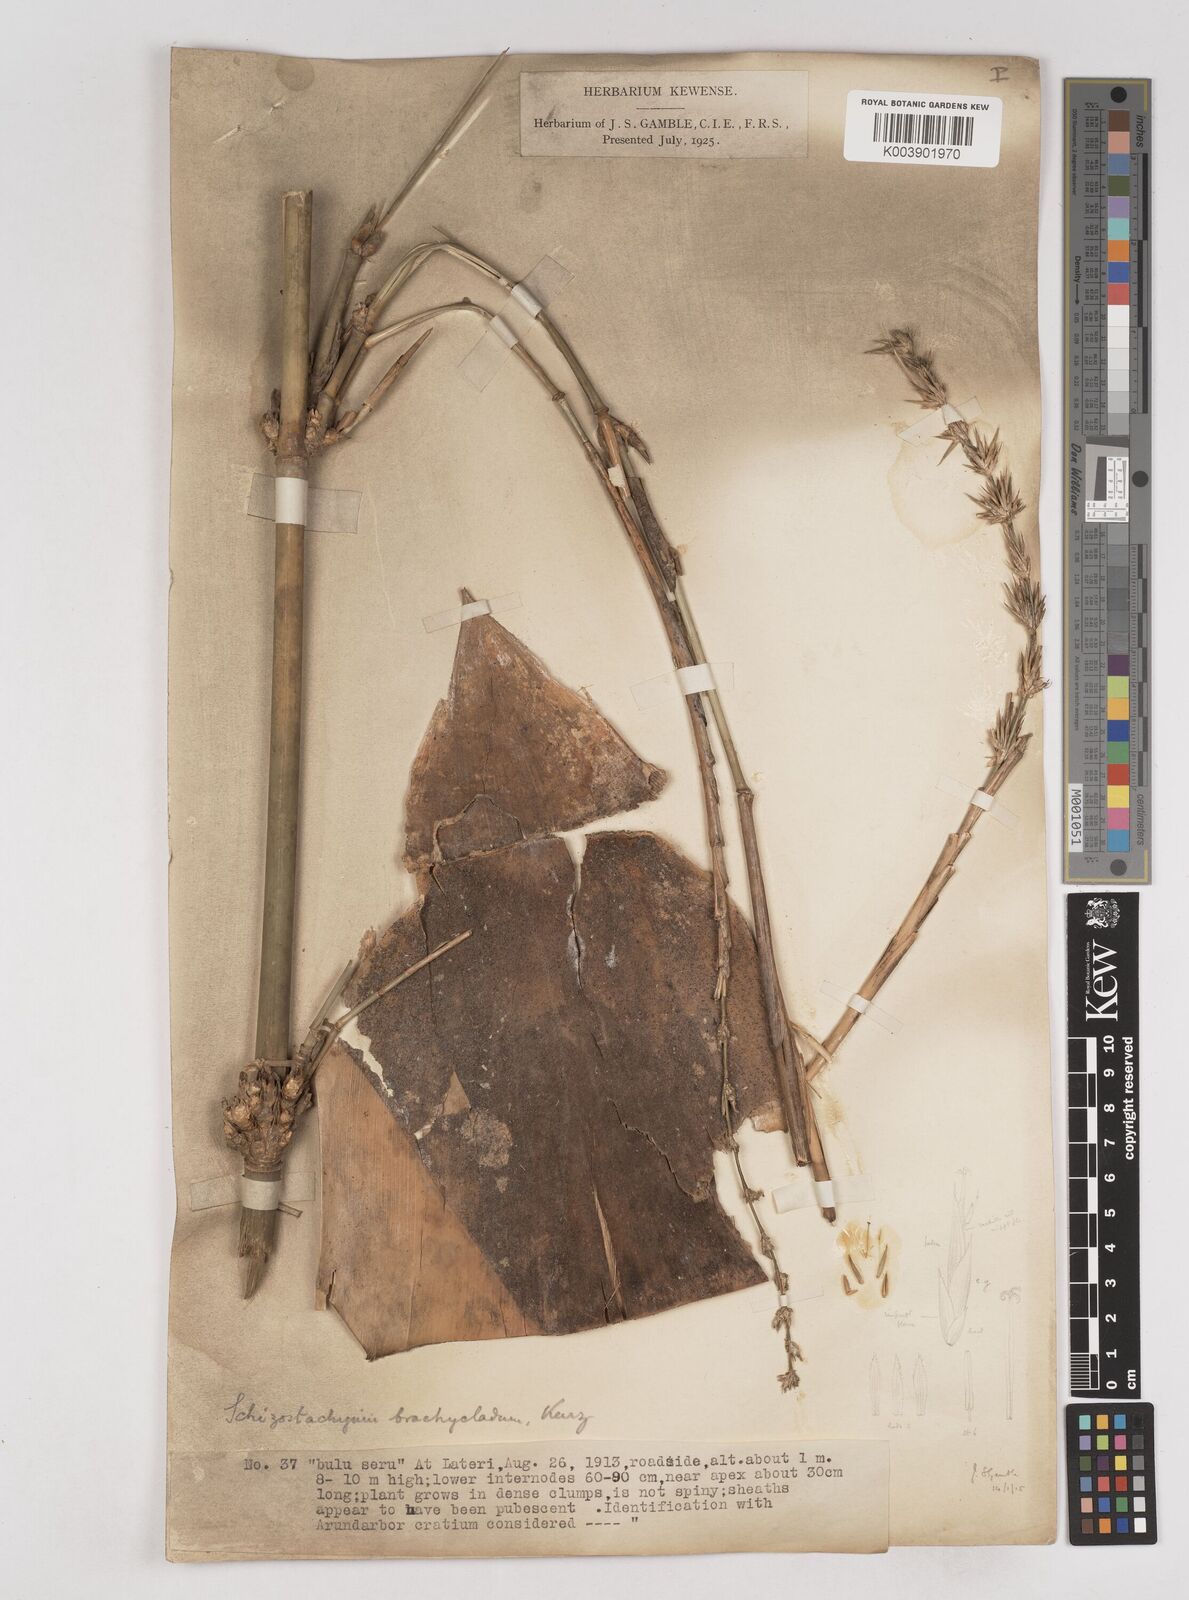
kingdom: Plantae
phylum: Tracheophyta
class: Liliopsida
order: Poales
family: Poaceae
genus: Schizostachyum
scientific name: Schizostachyum brachycladum
